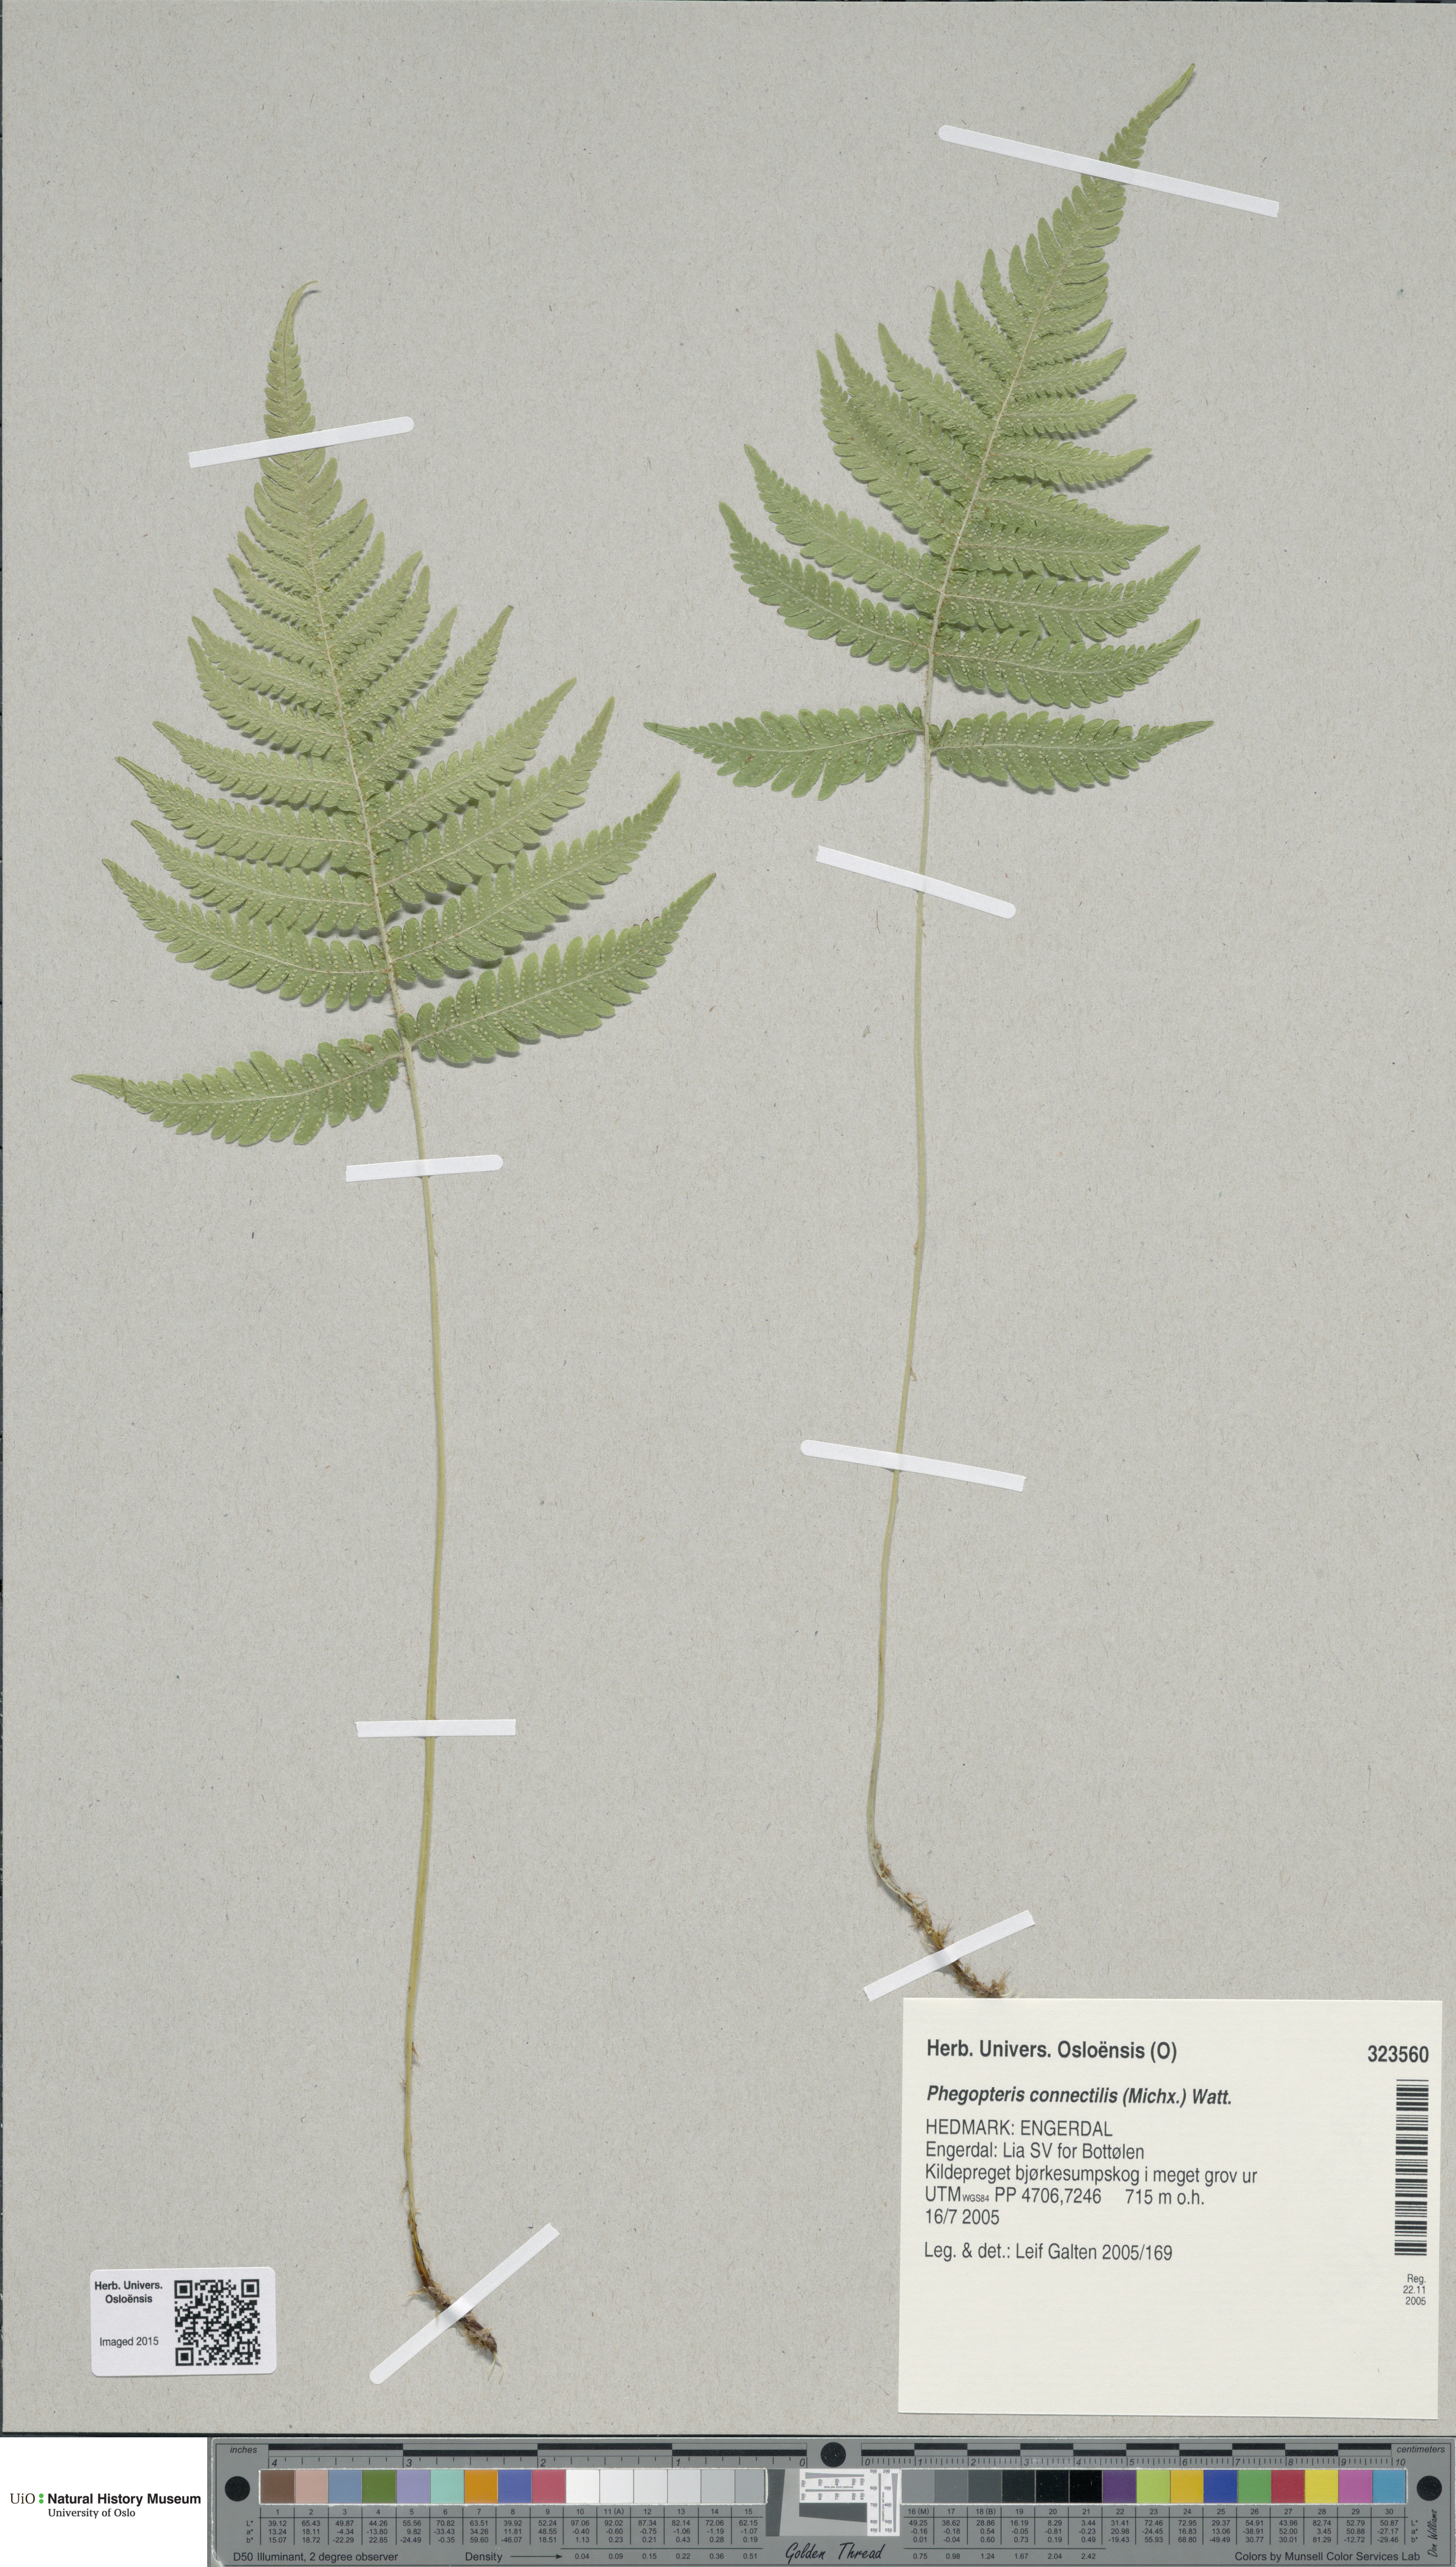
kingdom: Plantae
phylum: Tracheophyta
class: Polypodiopsida
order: Polypodiales
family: Thelypteridaceae
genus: Phegopteris
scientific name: Phegopteris connectilis
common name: Beech fern
